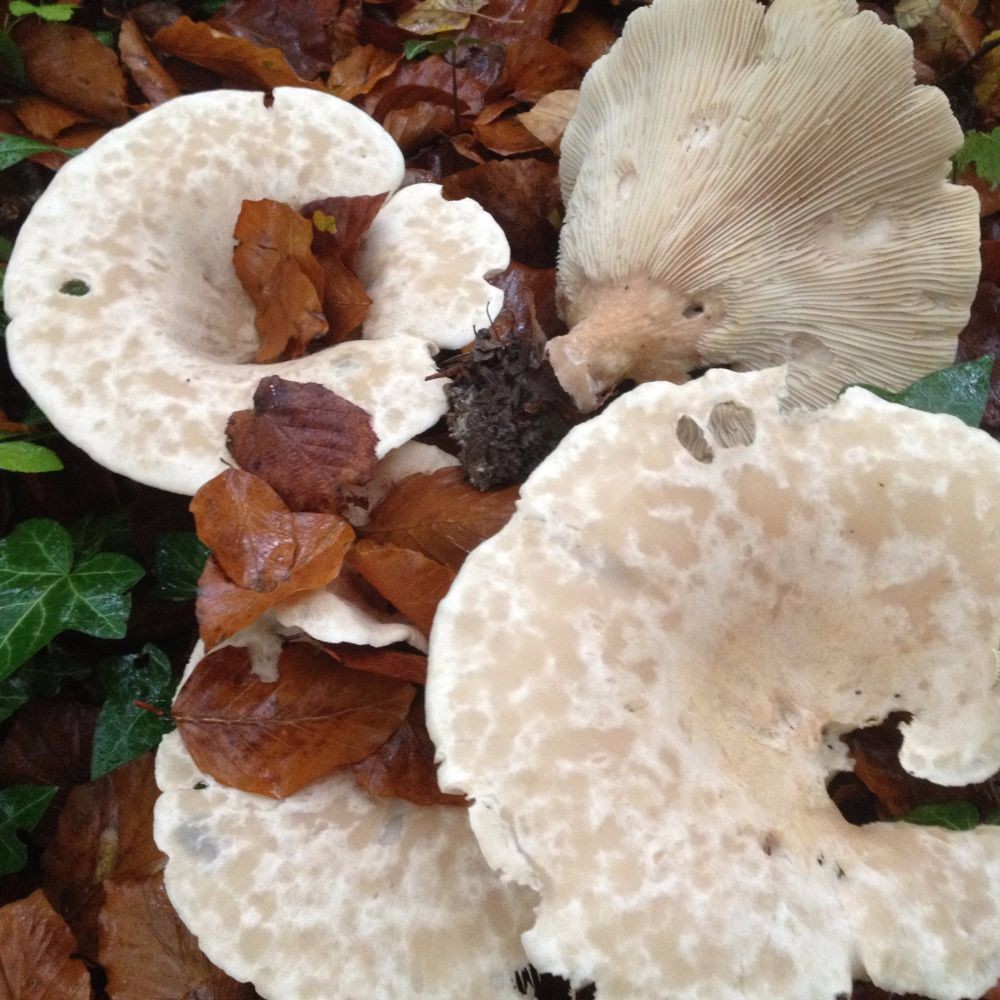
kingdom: Fungi
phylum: Basidiomycota
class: Agaricomycetes
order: Agaricales
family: Tricholomataceae
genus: Infundibulicybe
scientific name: Infundibulicybe geotropa
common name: stor tragthat
